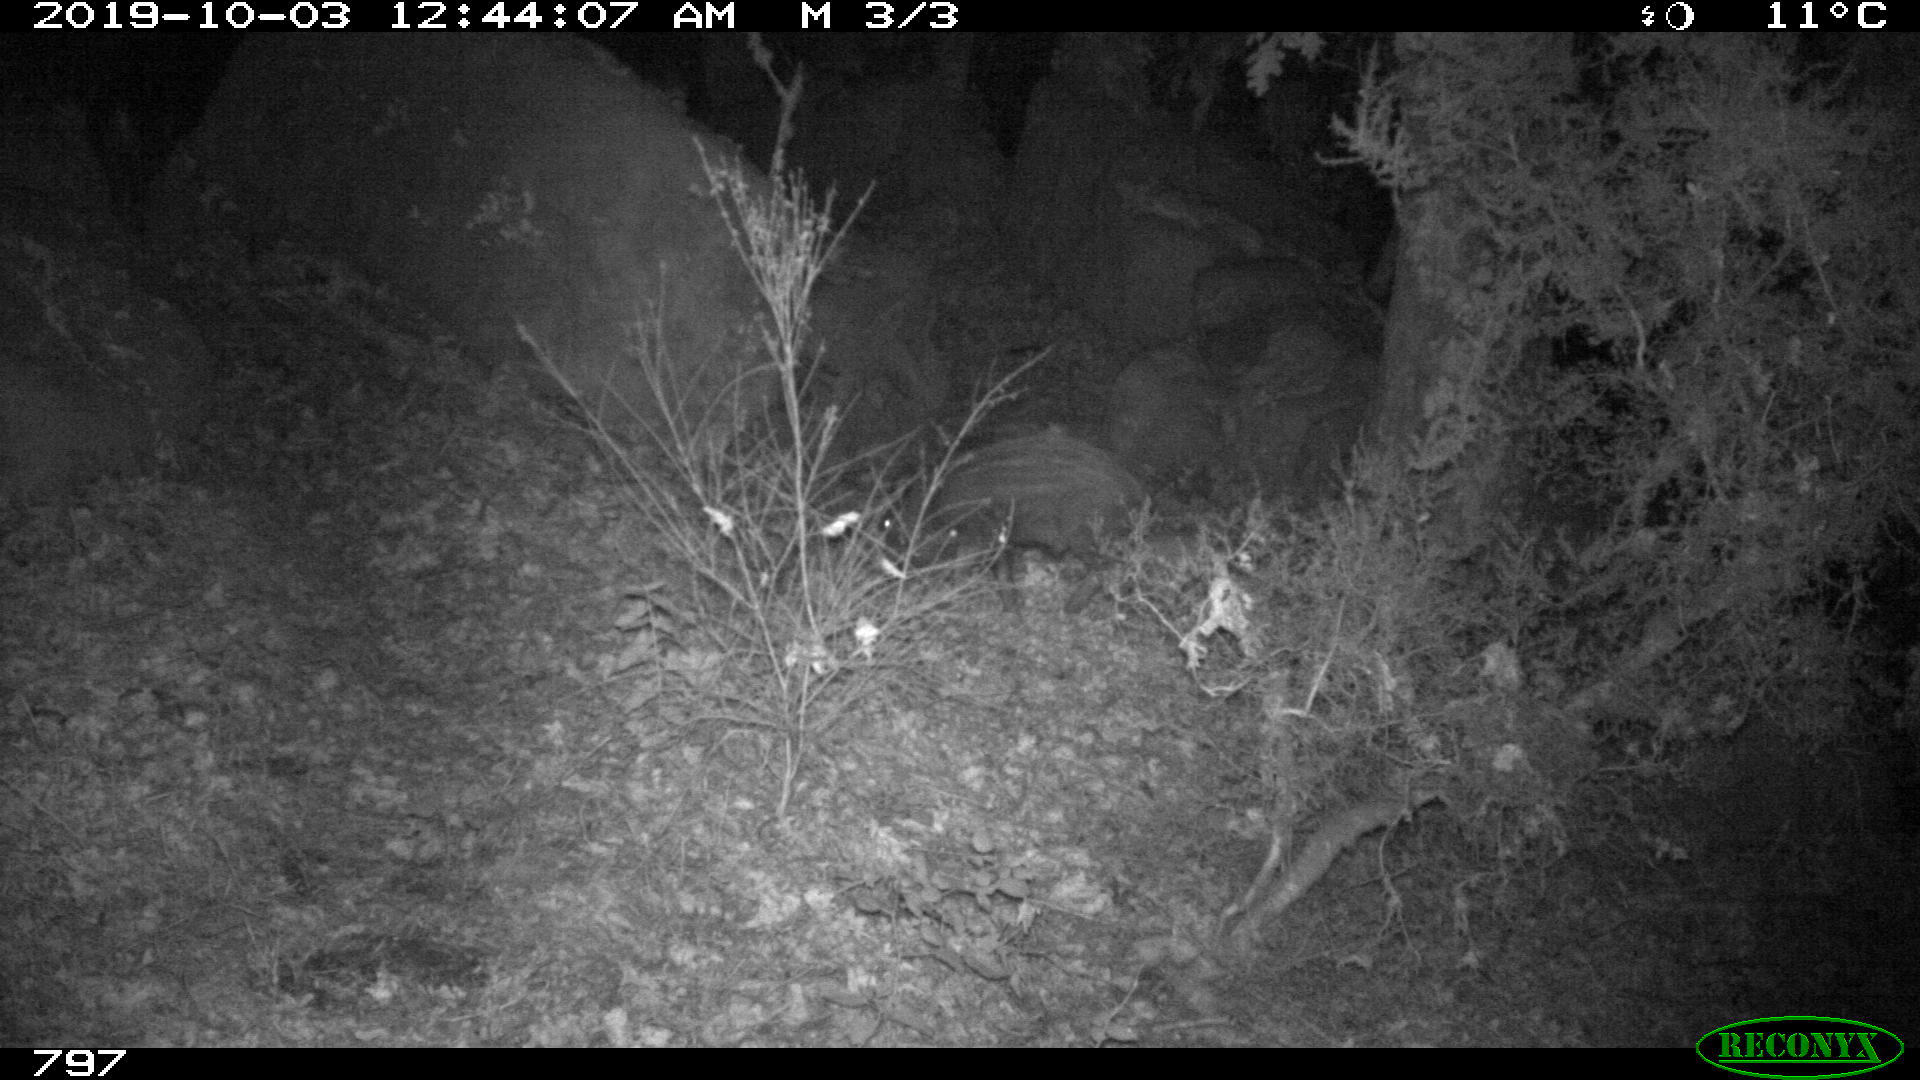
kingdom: Animalia
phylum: Chordata
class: Mammalia
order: Artiodactyla
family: Suidae
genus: Sus
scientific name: Sus scrofa
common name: Wild boar
